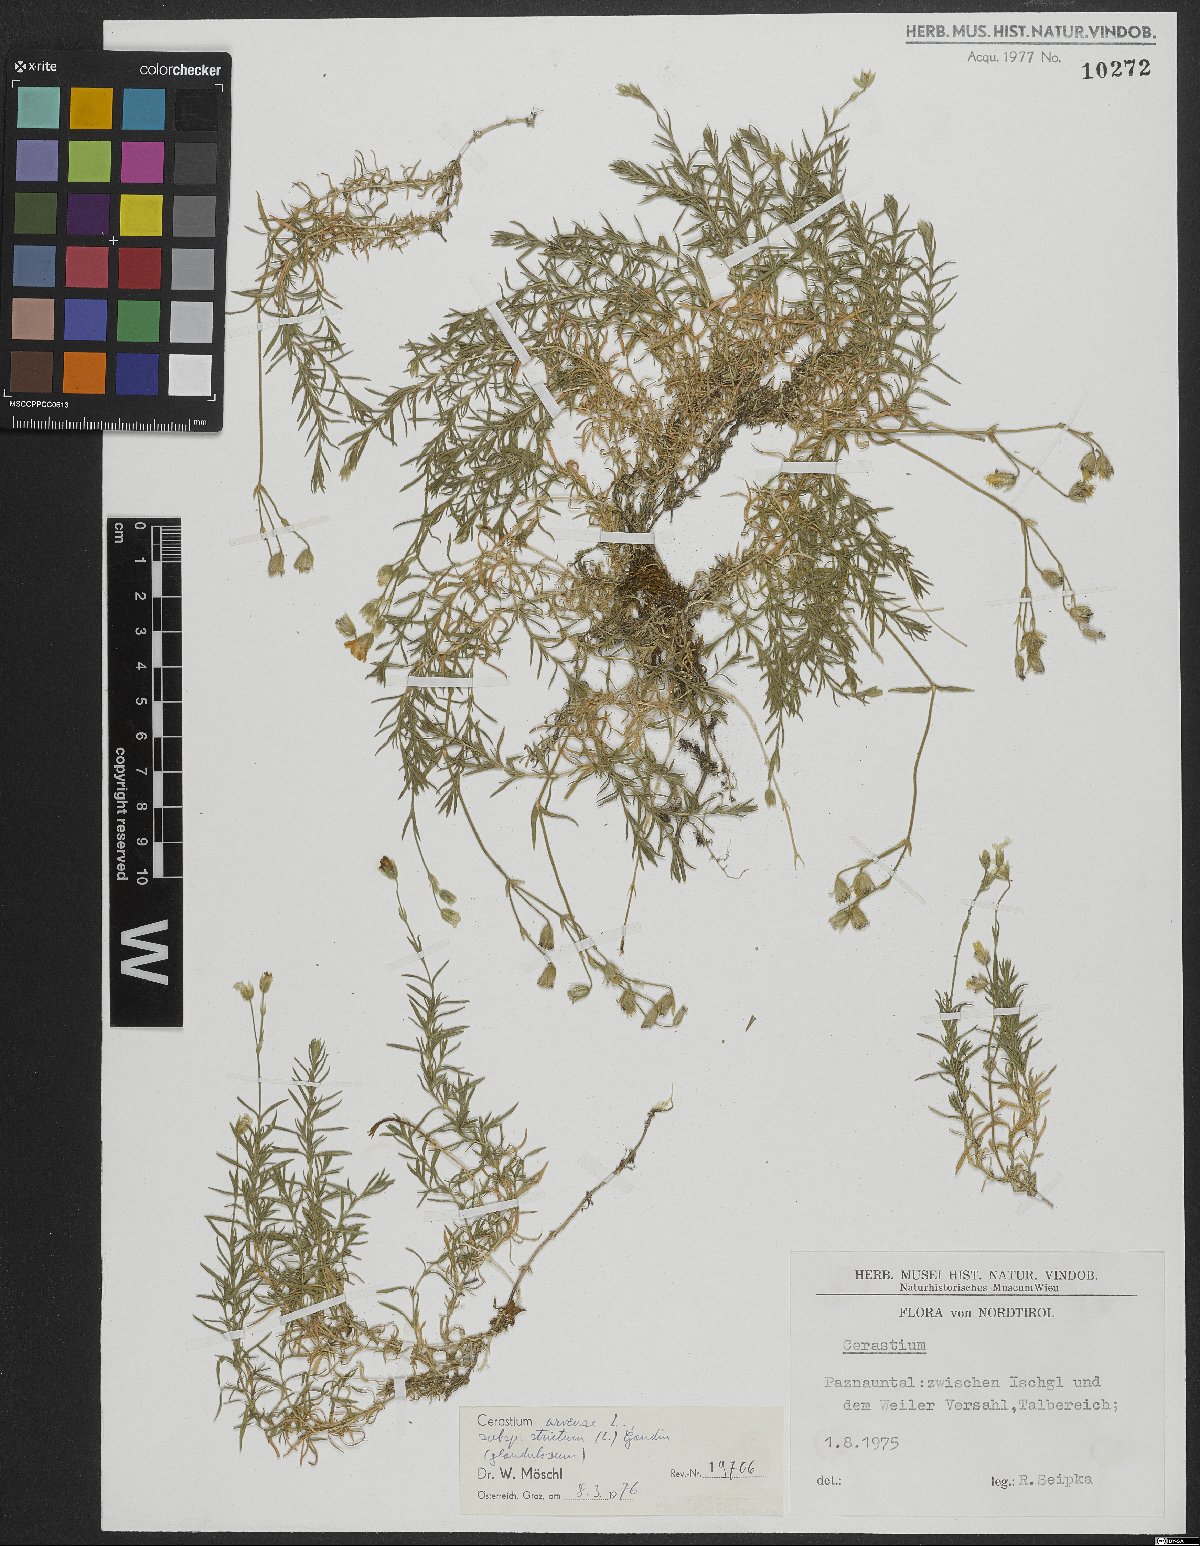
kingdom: Plantae
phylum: Tracheophyta
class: Magnoliopsida
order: Caryophyllales
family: Caryophyllaceae
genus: Cerastium
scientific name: Cerastium elongatum
